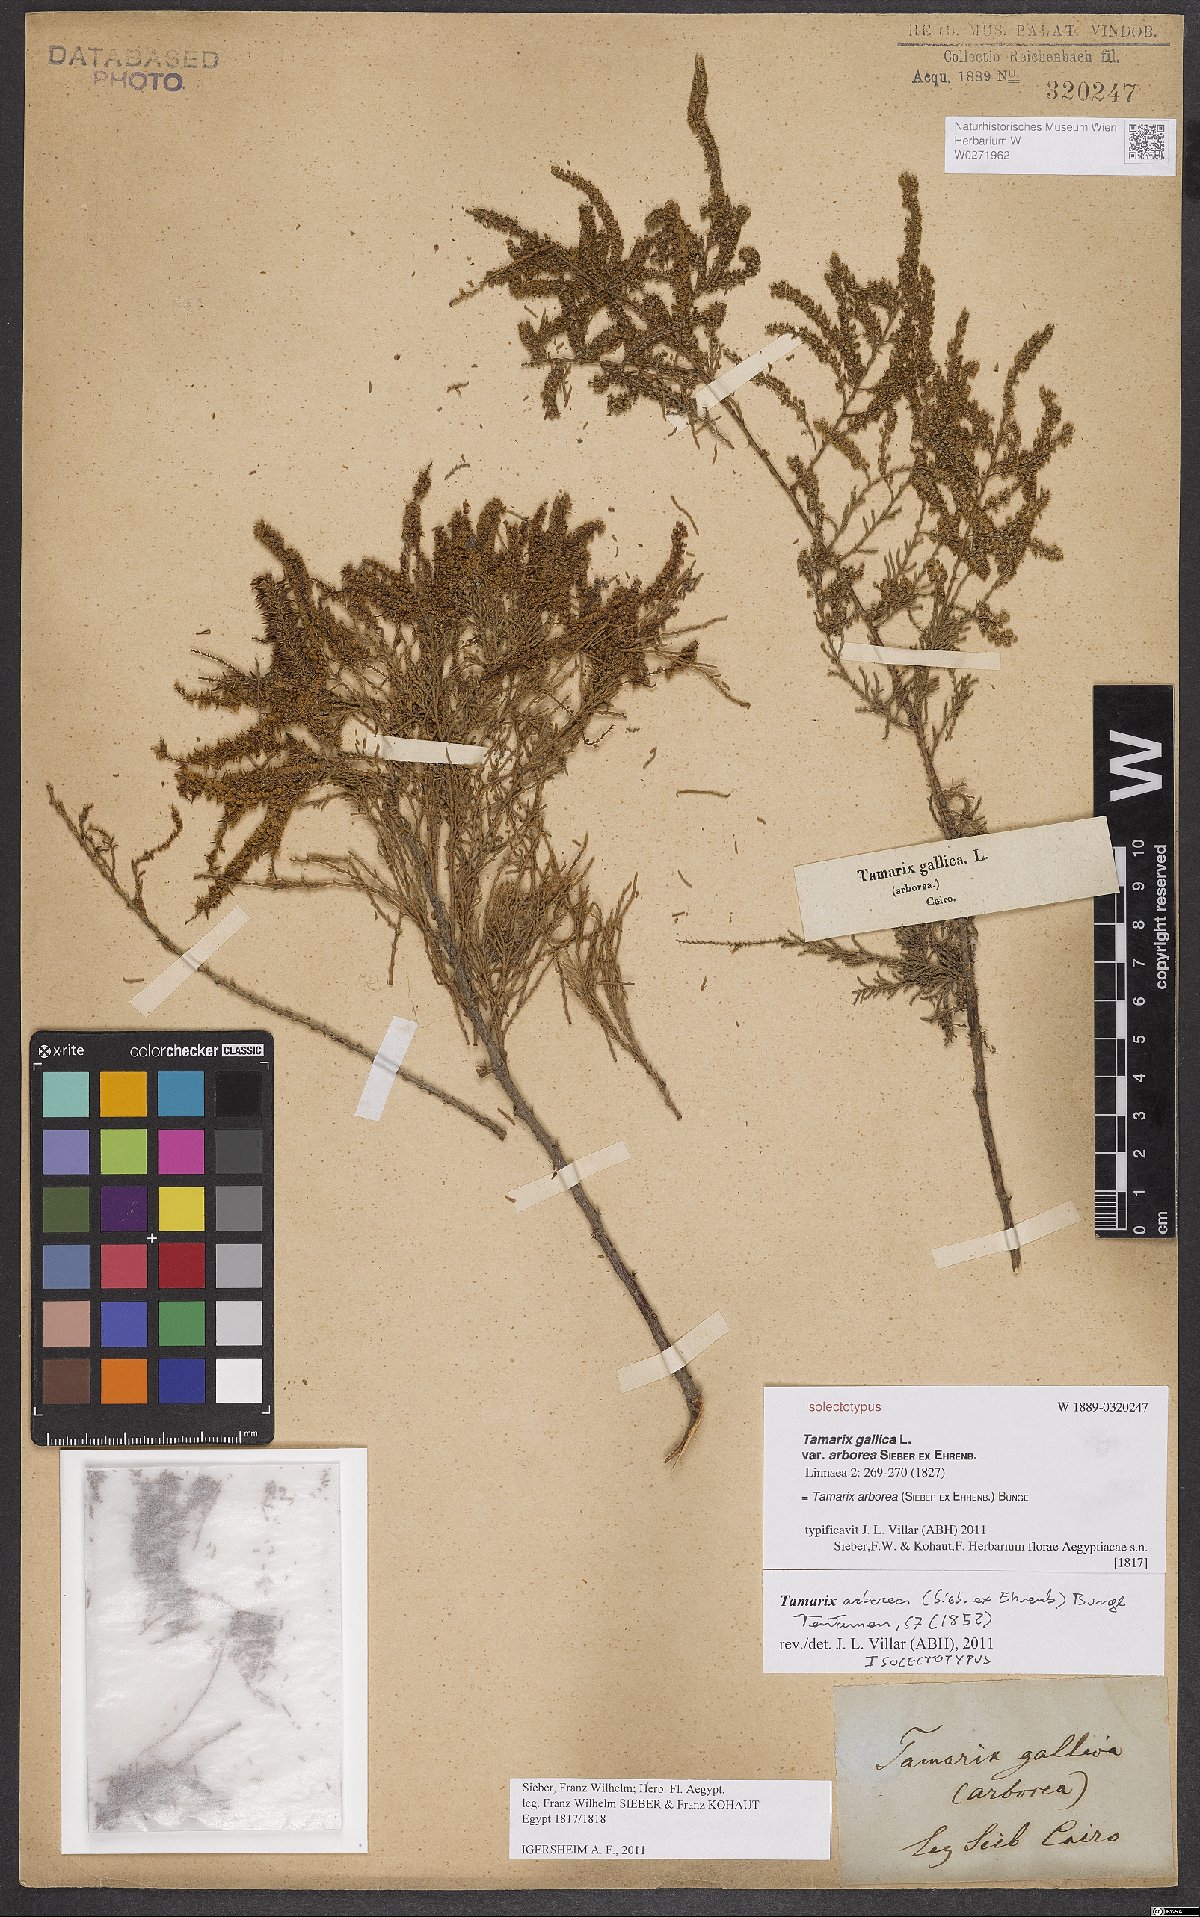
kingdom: Plantae
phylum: Tracheophyta
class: Magnoliopsida
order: Caryophyllales
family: Tamaricaceae
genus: Tamarix
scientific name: Tamarix
